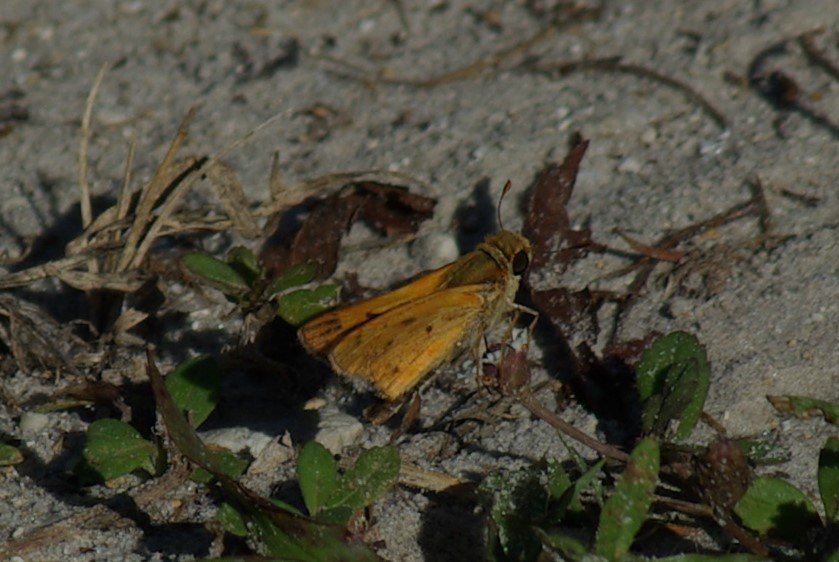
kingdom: Animalia
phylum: Arthropoda
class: Insecta
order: Lepidoptera
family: Hesperiidae
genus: Hylephila
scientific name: Hylephila phyleus
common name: Fiery Skipper
